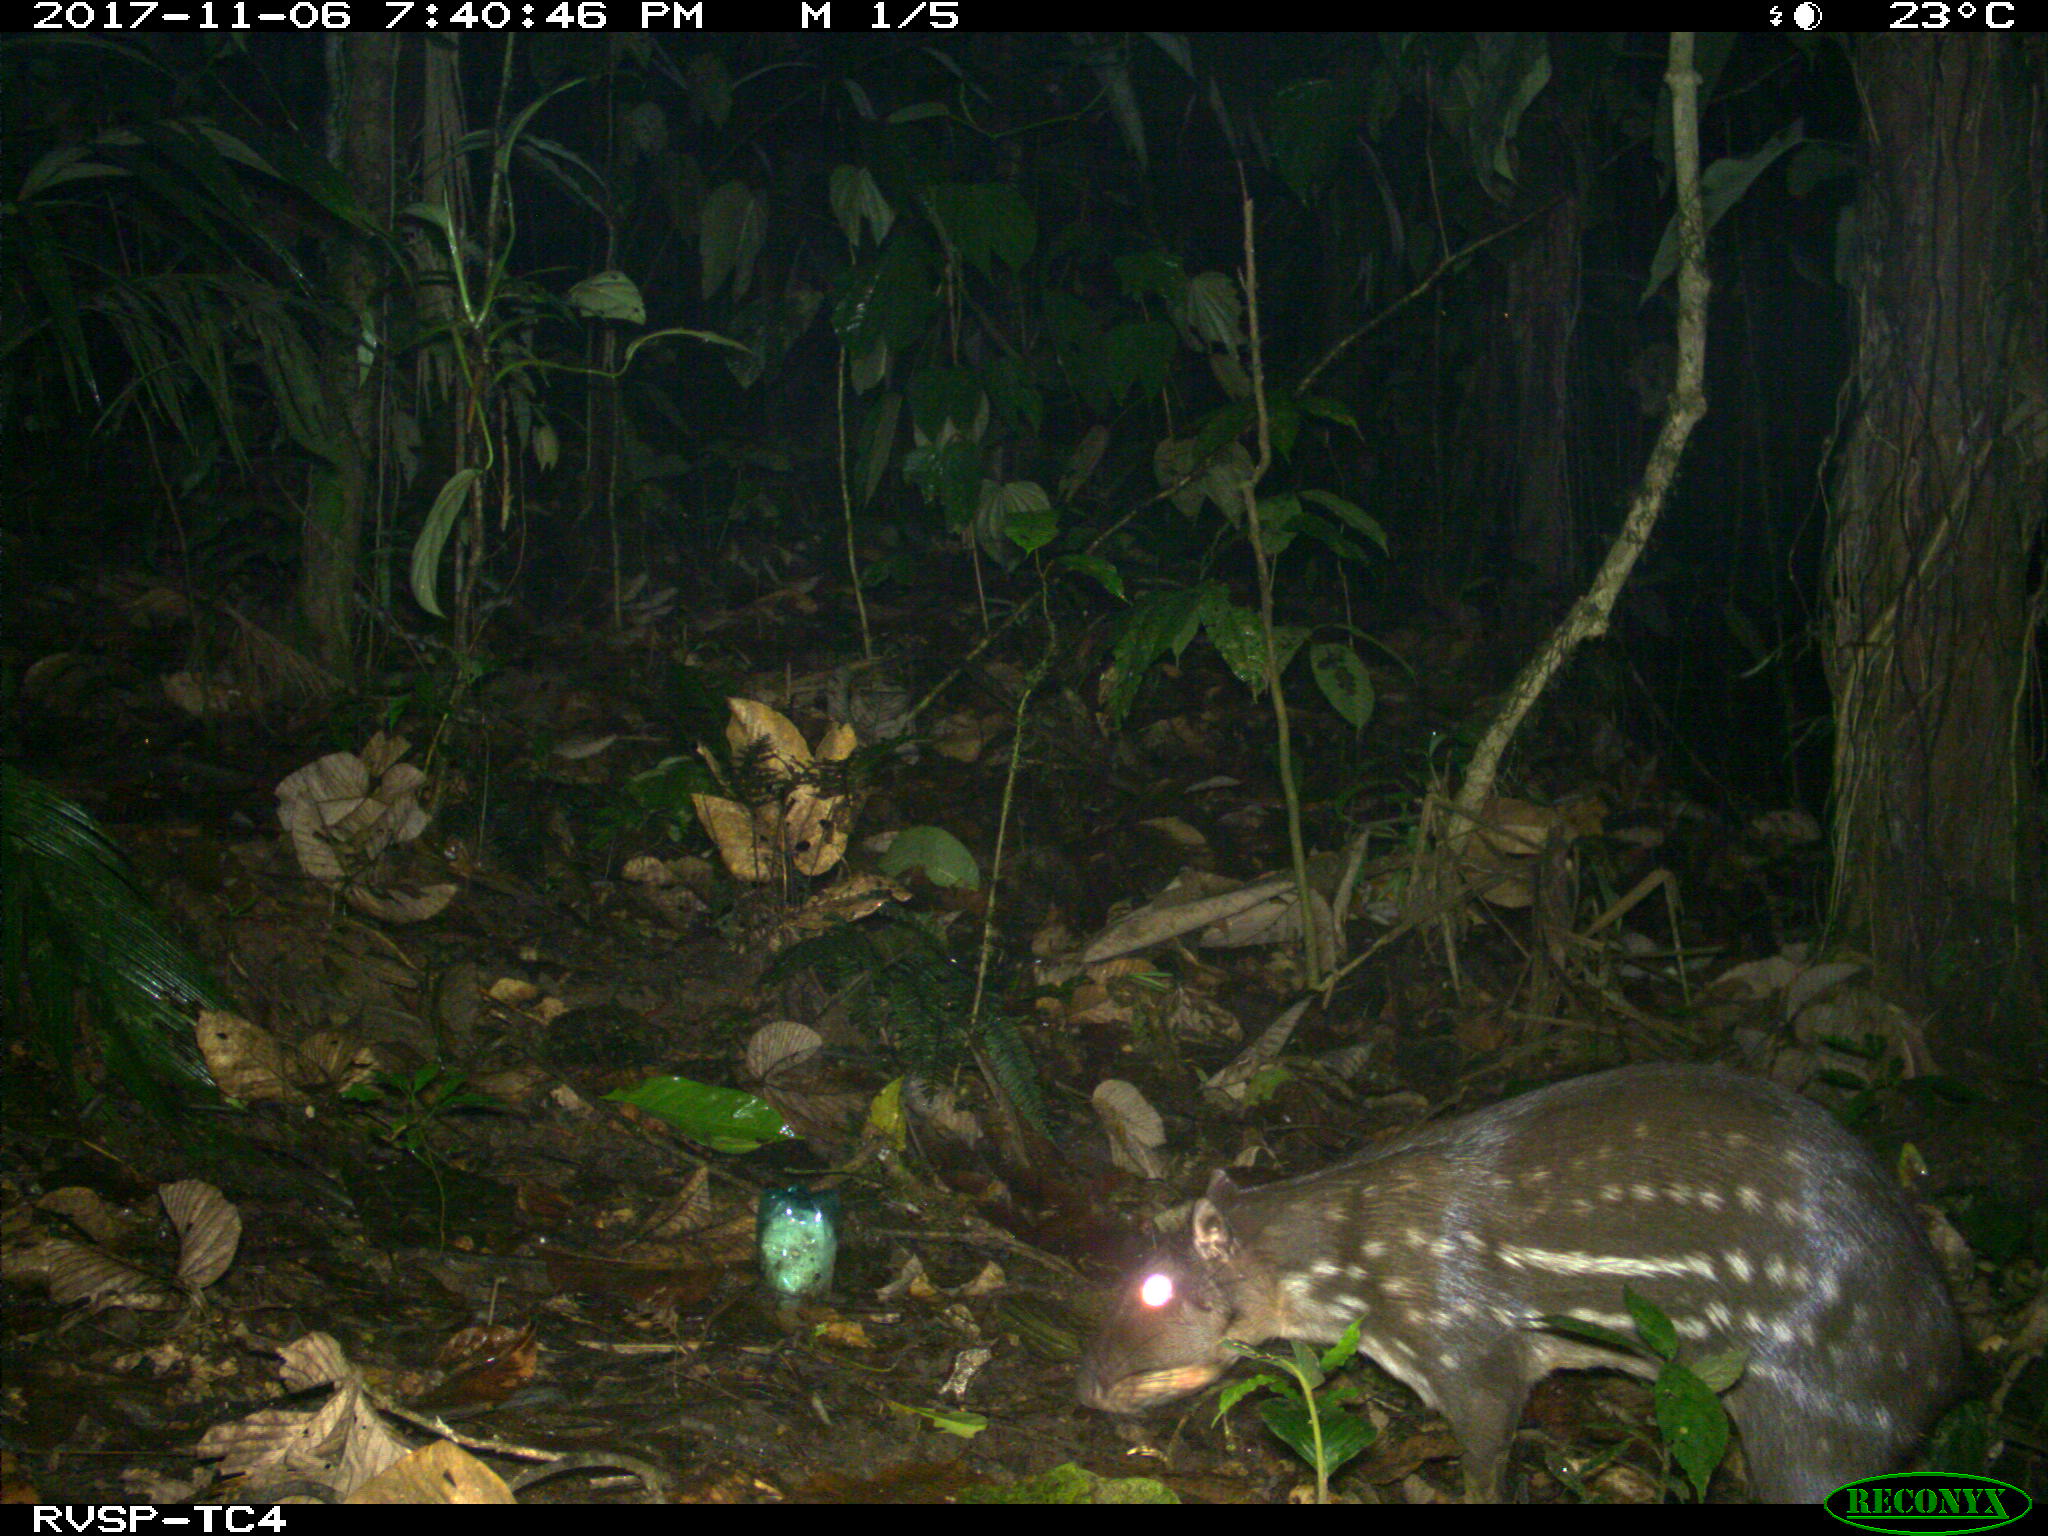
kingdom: Animalia
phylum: Chordata
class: Mammalia
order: Rodentia
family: Cuniculidae
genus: Cuniculus
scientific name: Cuniculus paca
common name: Lowland paca
